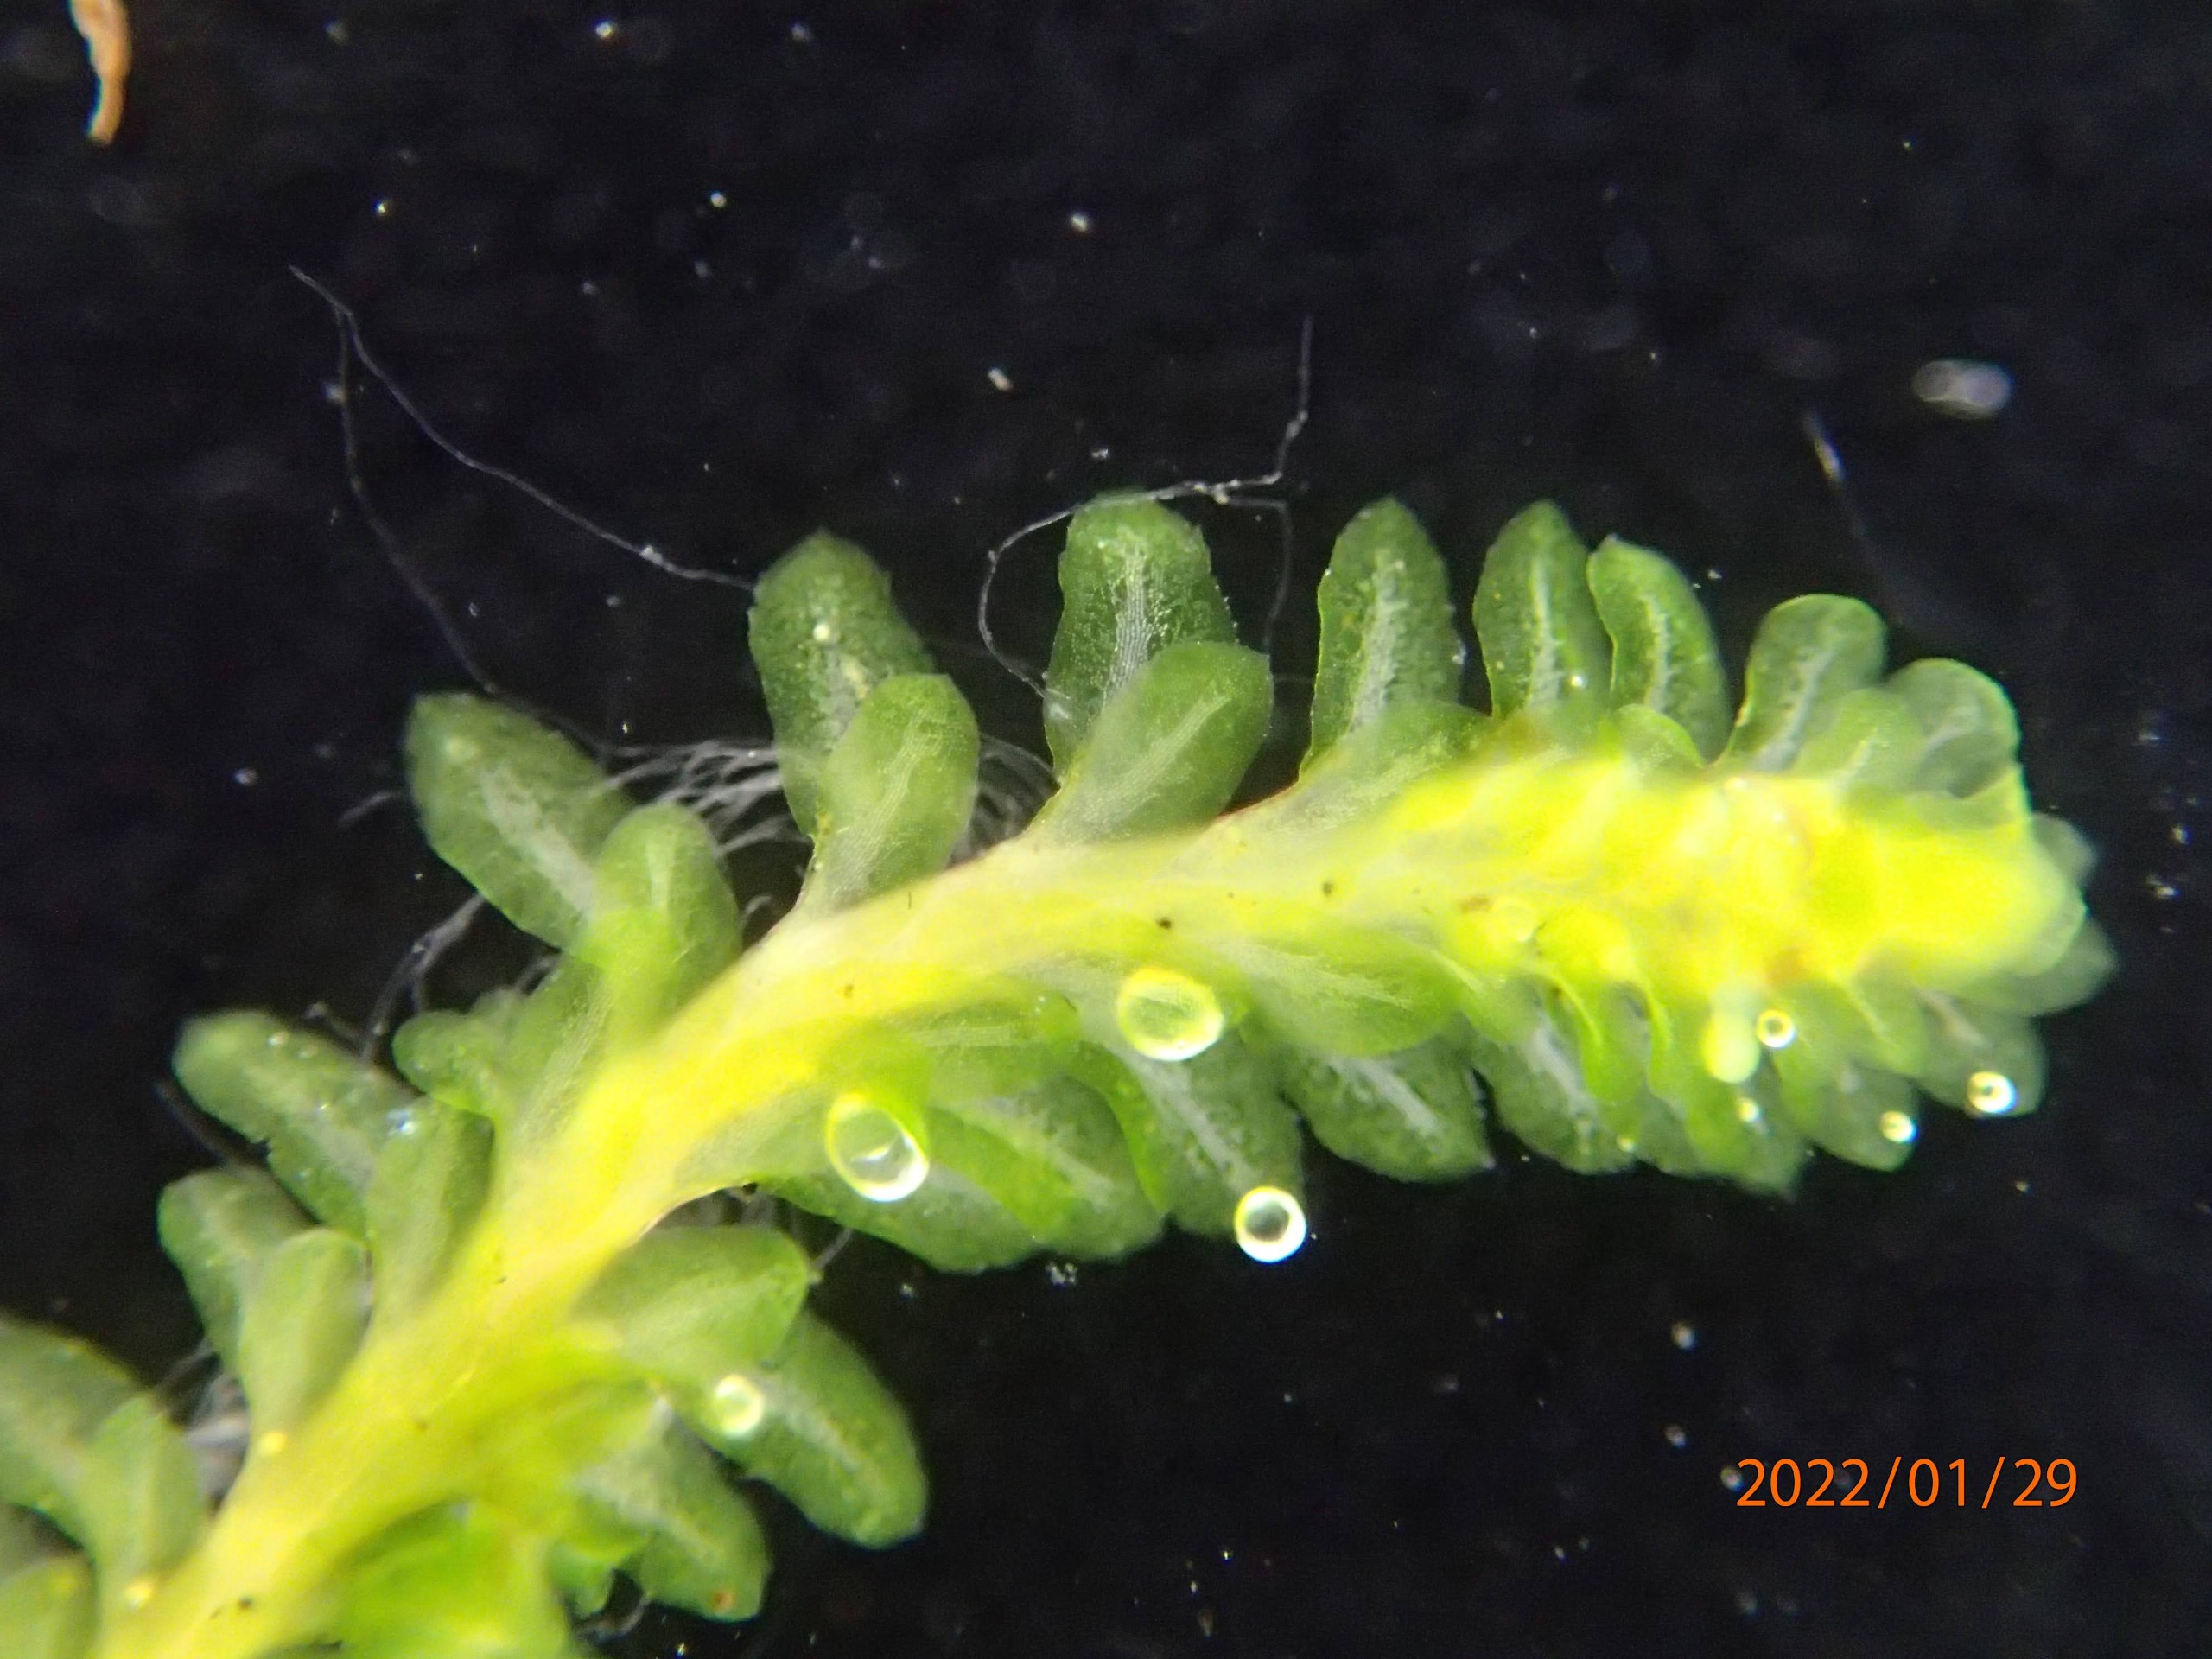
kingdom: Plantae
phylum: Marchantiophyta
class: Jungermanniopsida
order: Jungermanniales
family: Scapaniaceae
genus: Diplophyllum
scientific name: Diplophyllum albicans
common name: Stribet dobbeltblad
